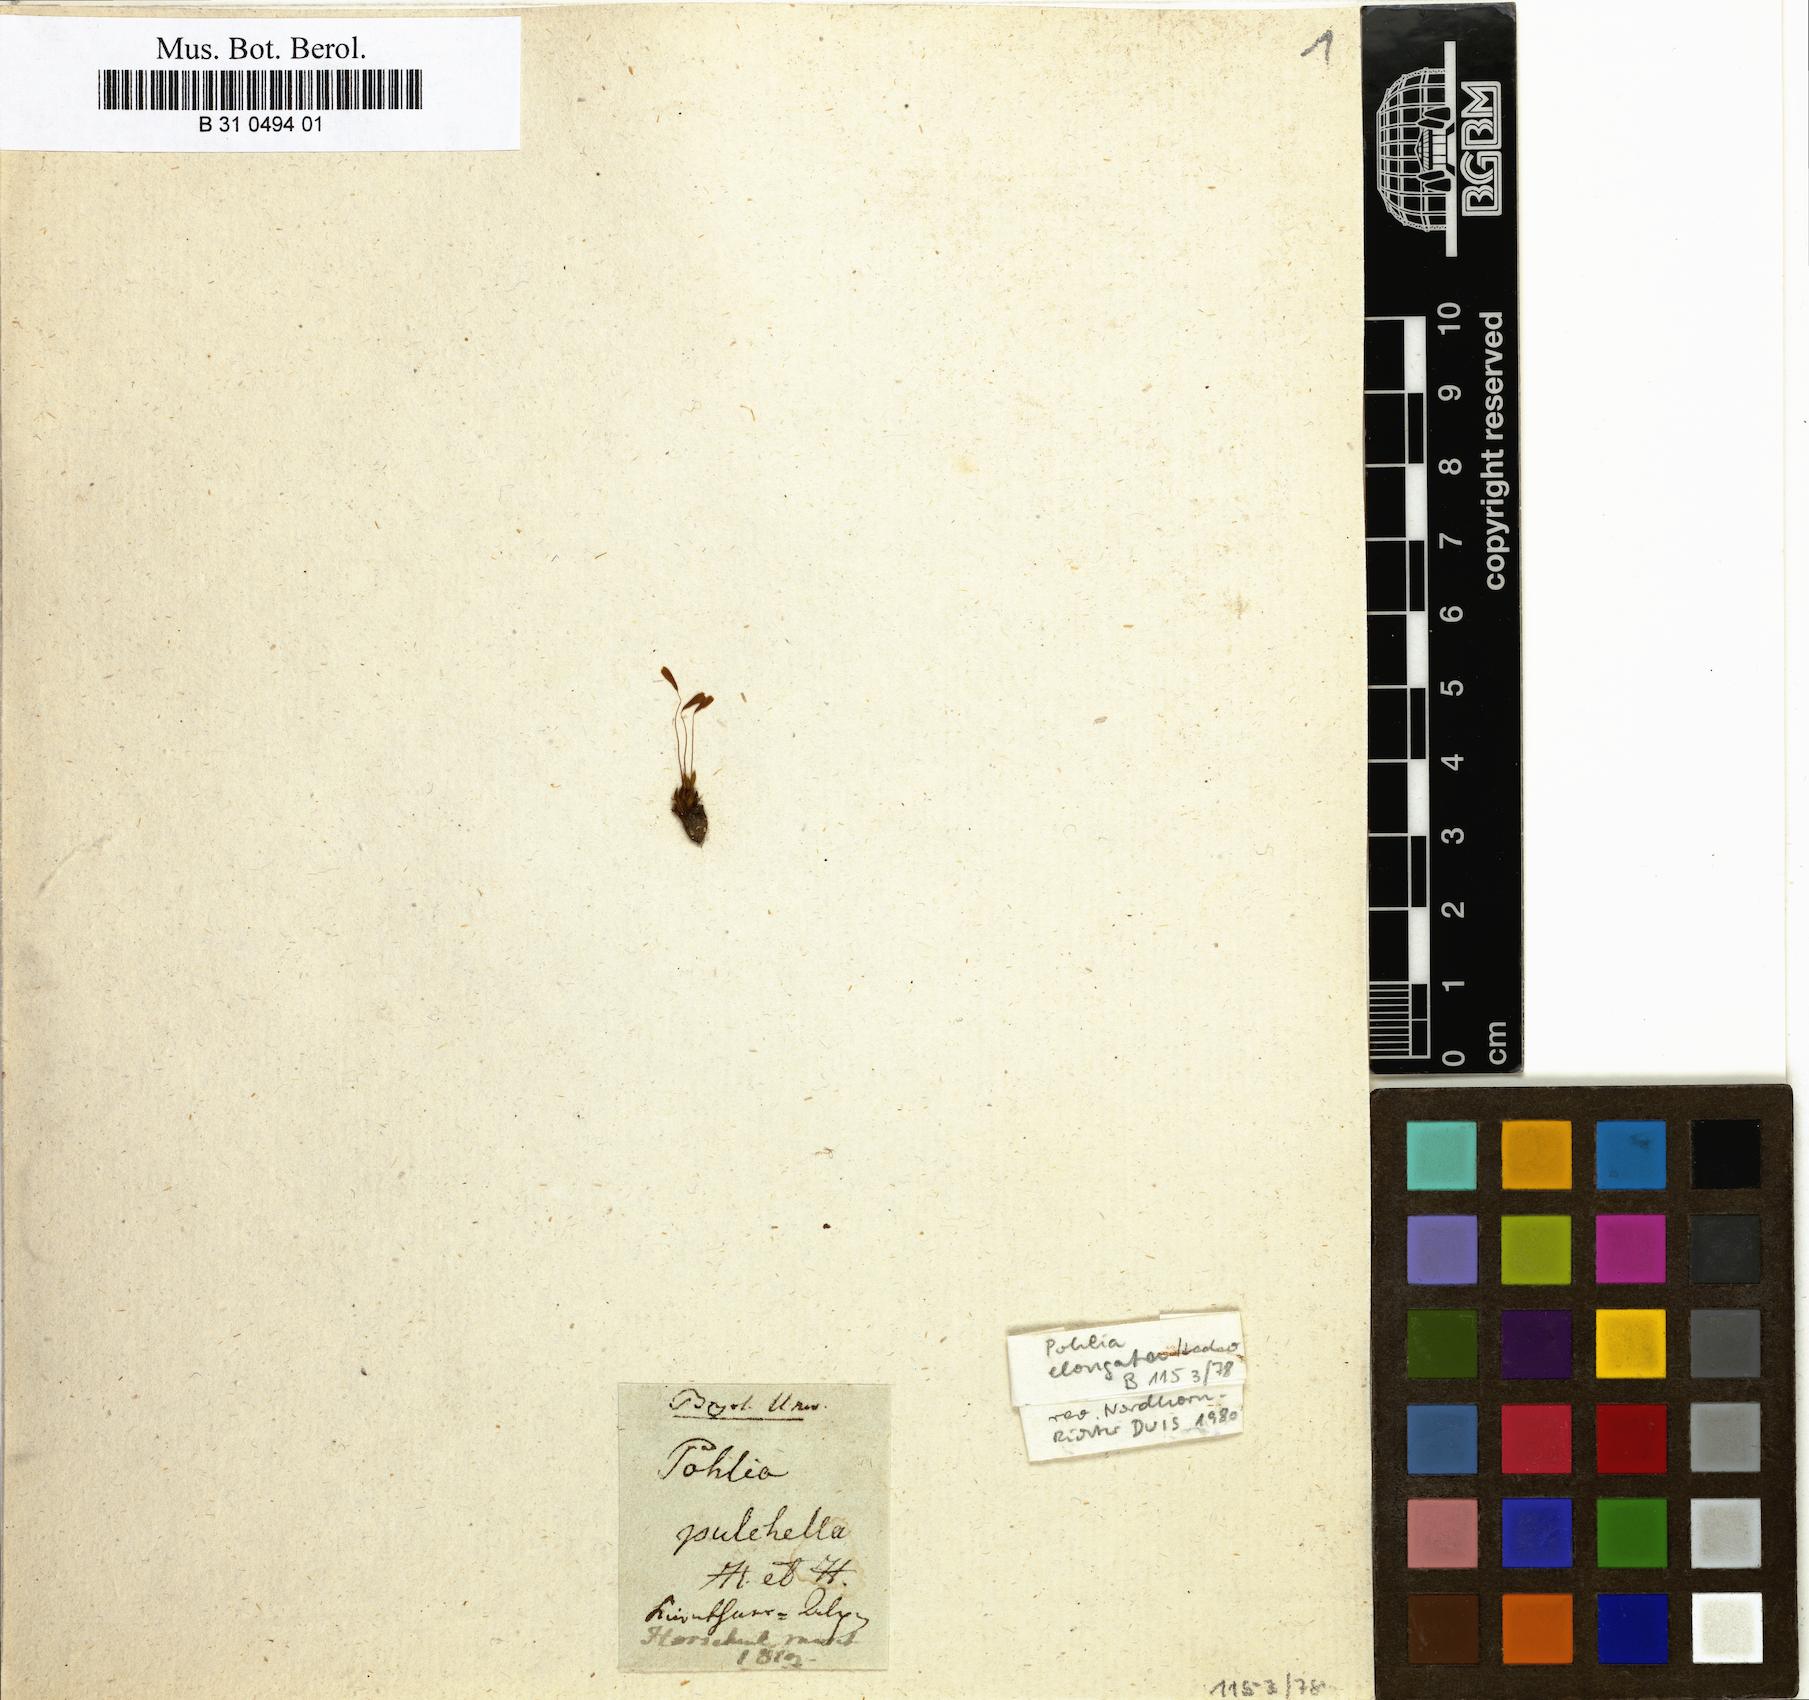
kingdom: Plantae
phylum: Bryophyta
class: Bryopsida
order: Bryales
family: Mniaceae
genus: Pohlia
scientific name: Pohlia elongata
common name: Long-fruited thread-moss
